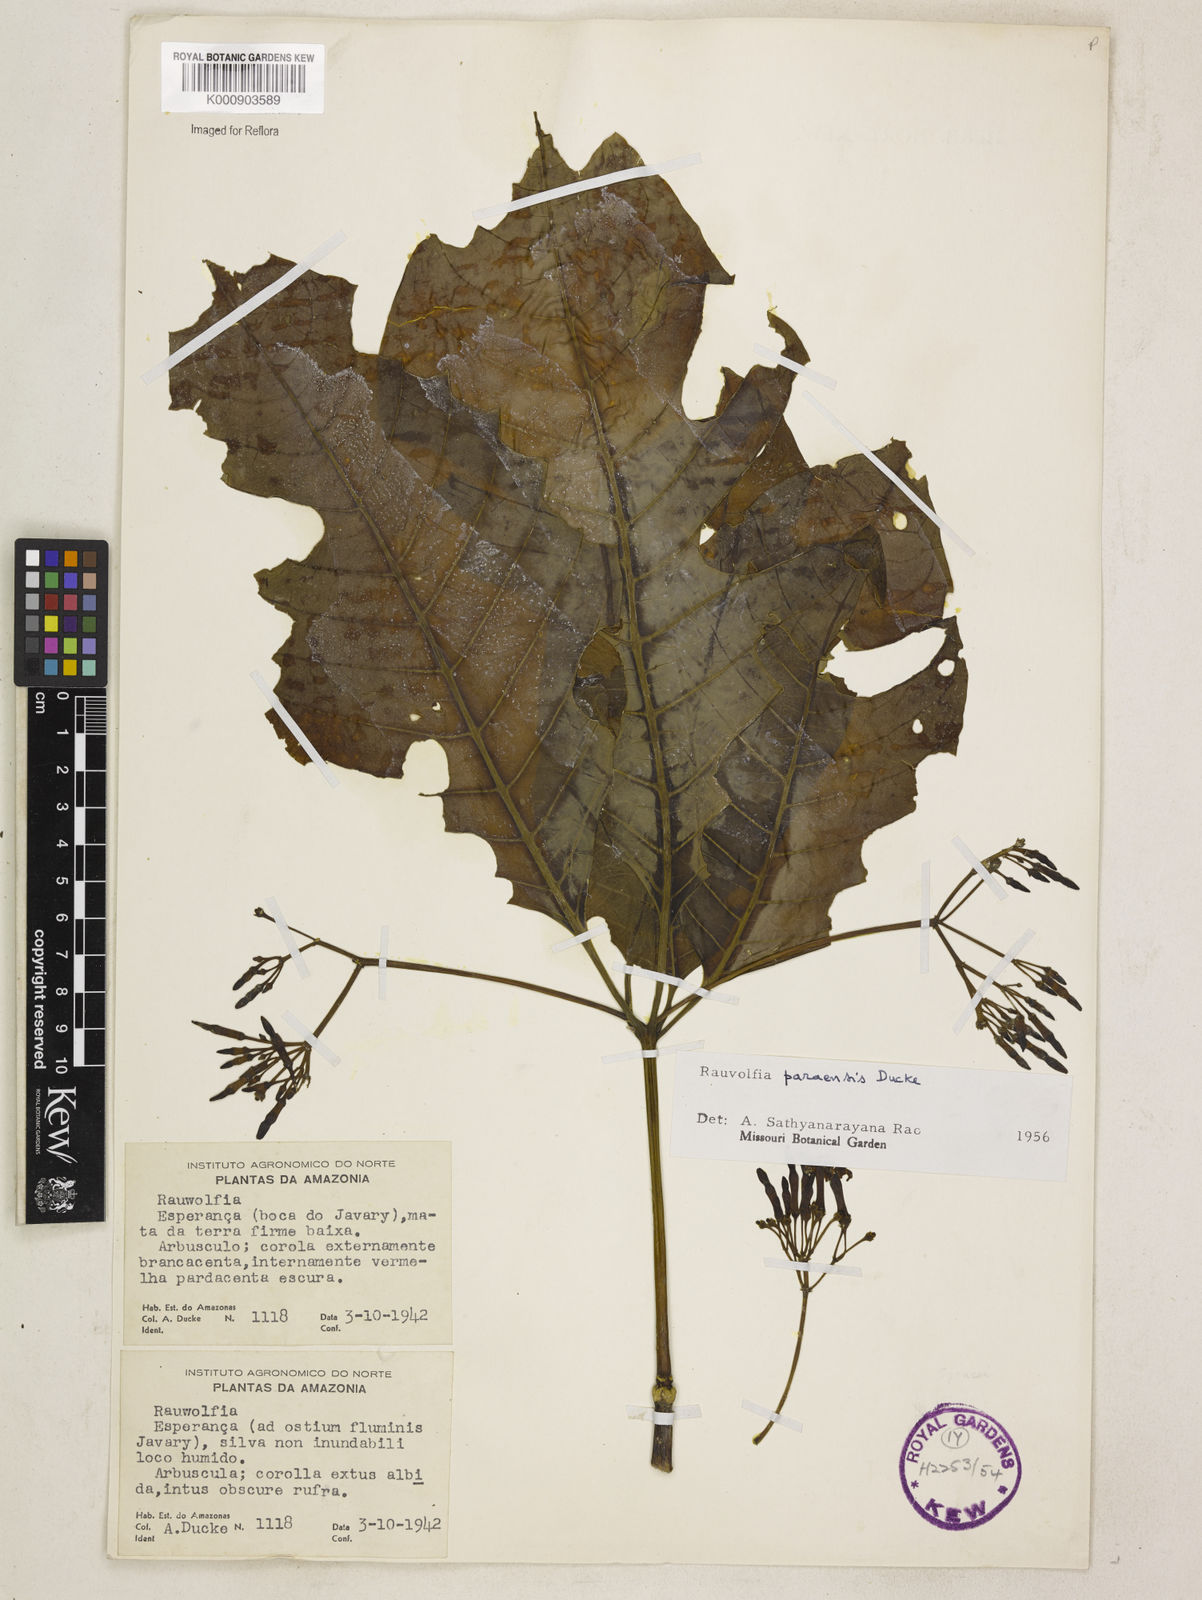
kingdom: Plantae
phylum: Tracheophyta
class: Magnoliopsida
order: Gentianales
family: Apocynaceae
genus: Rauvolfia
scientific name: Rauvolfia paraensis
